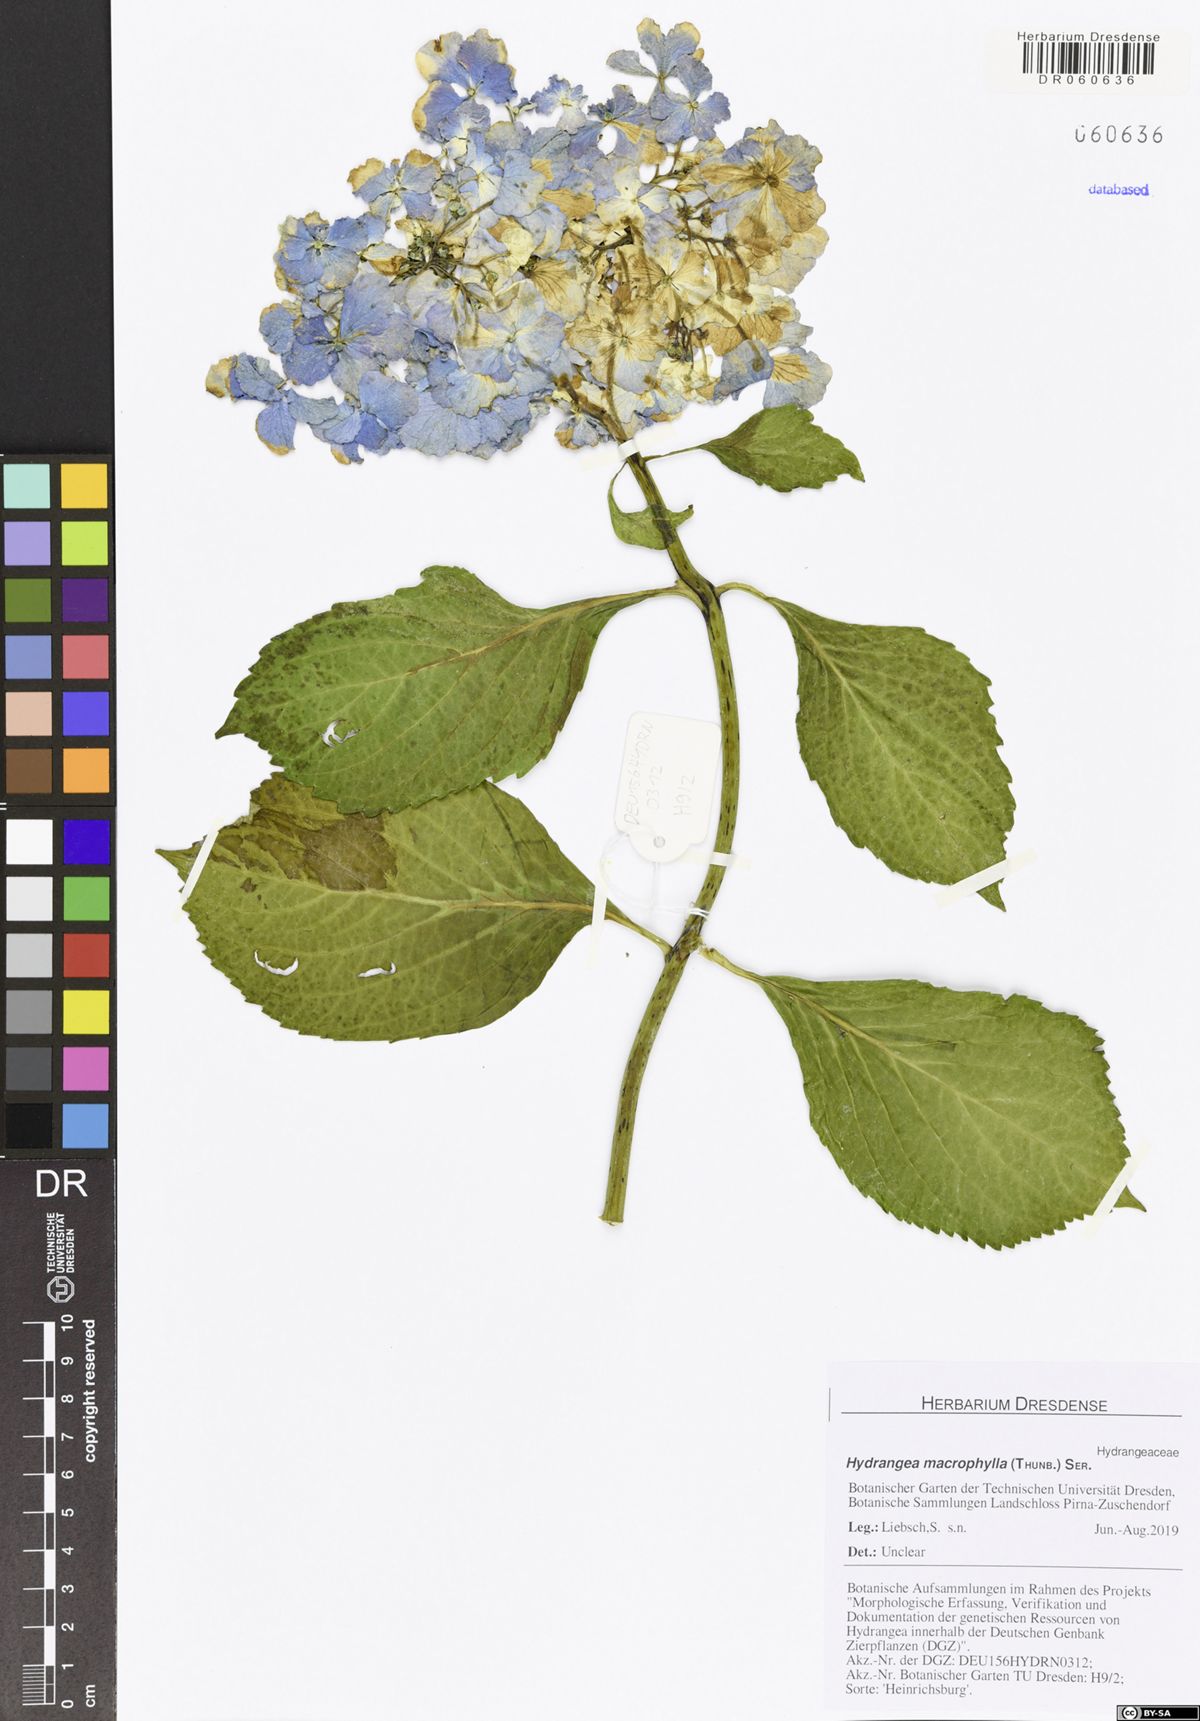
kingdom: Plantae
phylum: Tracheophyta
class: Magnoliopsida
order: Cornales
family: Hydrangeaceae
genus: Hydrangea
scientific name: Hydrangea macrophylla
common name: Hydrangea
